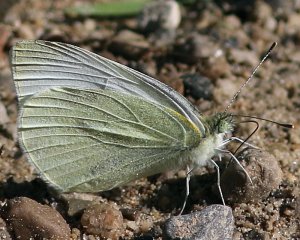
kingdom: Animalia
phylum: Arthropoda
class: Insecta
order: Lepidoptera
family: Pieridae
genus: Pieris
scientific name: Pieris rapae
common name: Cabbage White
